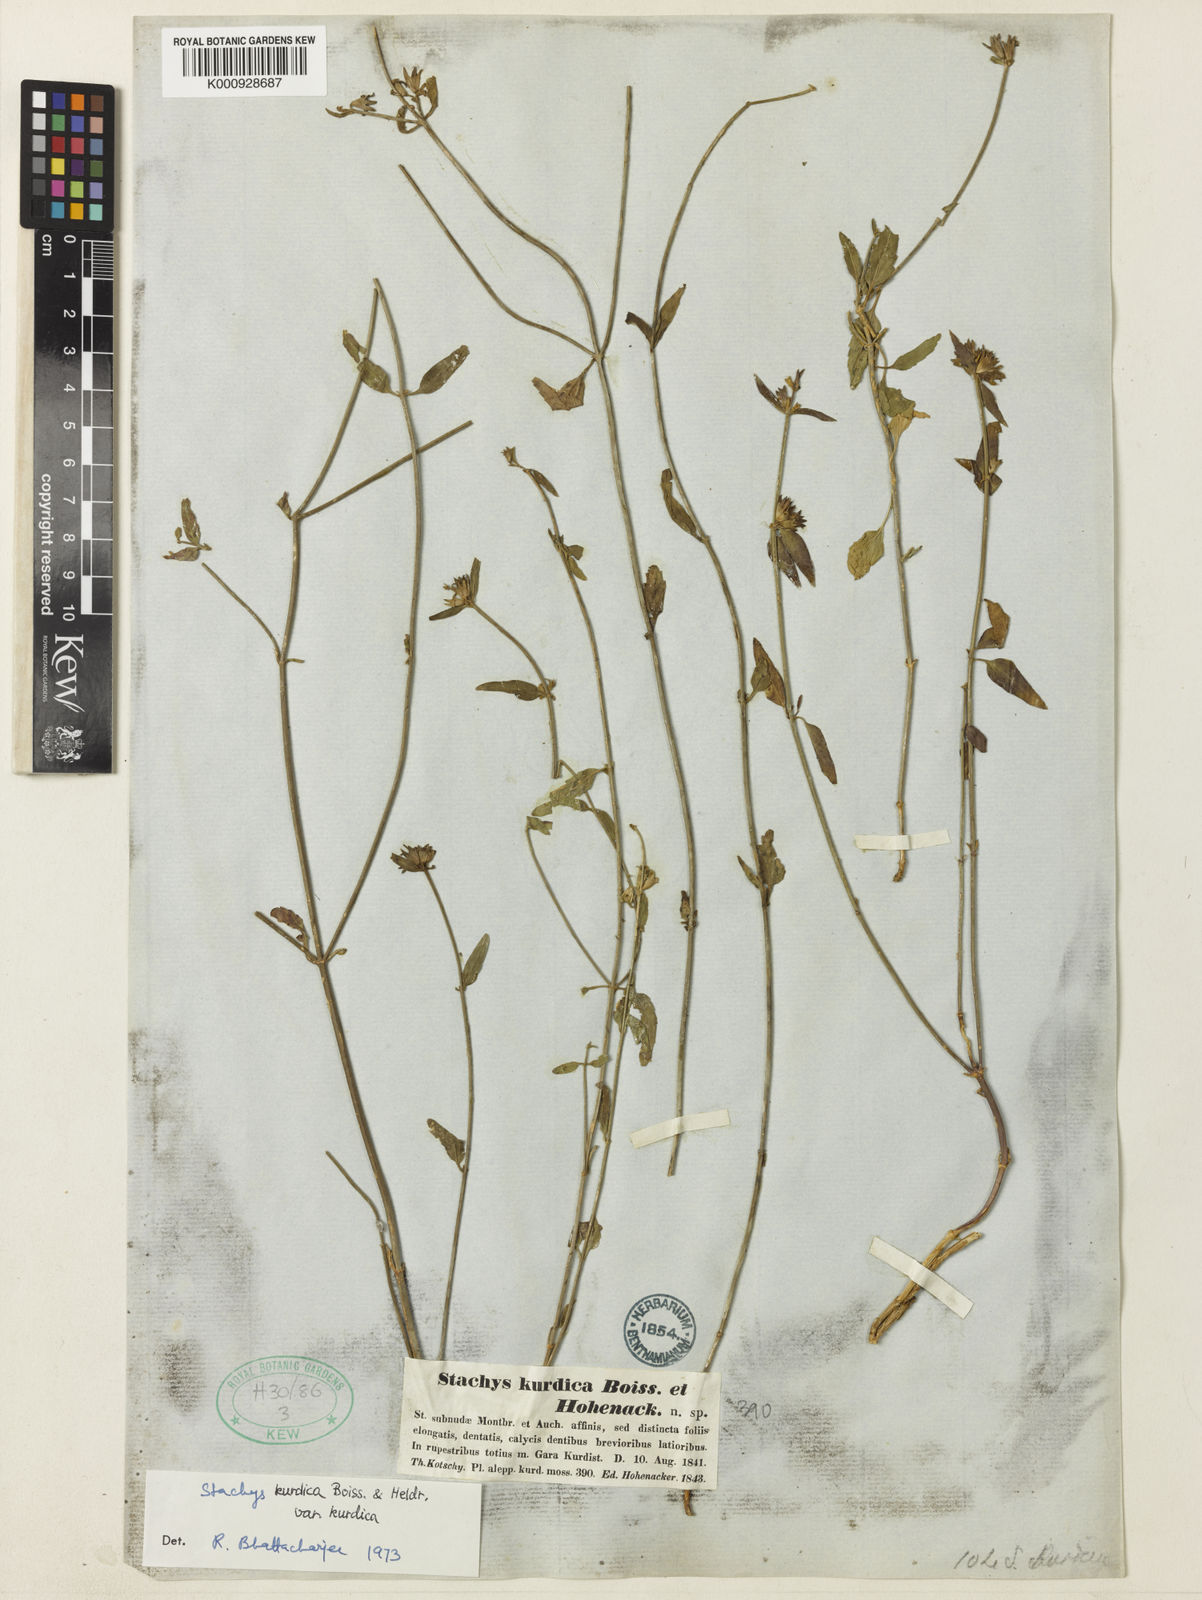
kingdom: Plantae
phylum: Tracheophyta
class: Magnoliopsida
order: Lamiales
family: Lamiaceae
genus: Stachys
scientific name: Stachys kurdica
